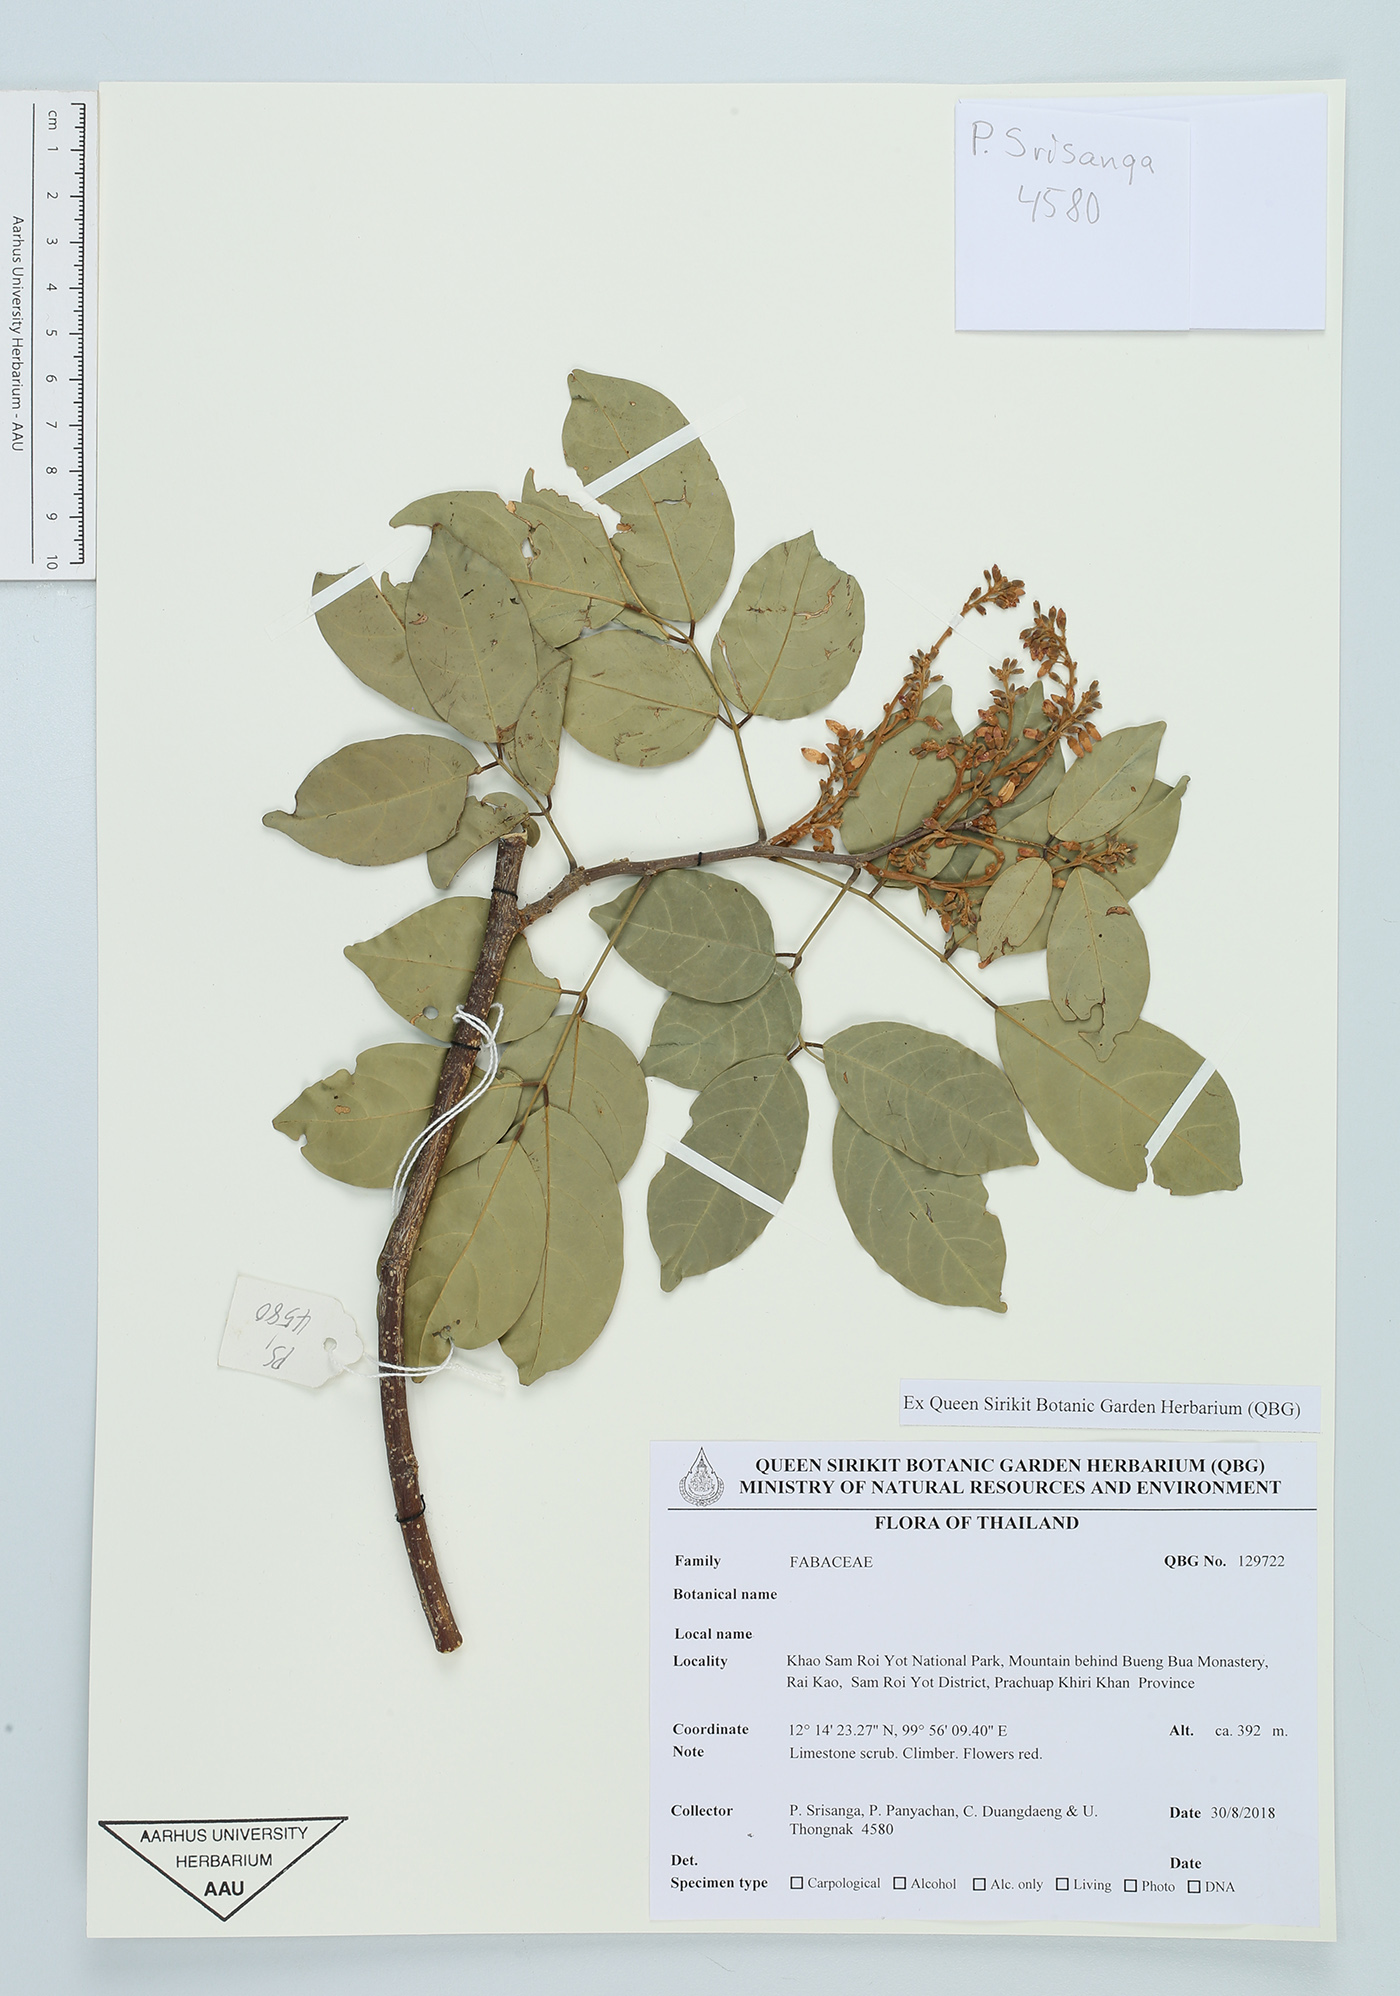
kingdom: Plantae
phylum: Tracheophyta
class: Magnoliopsida
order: Fabales
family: Fabaceae
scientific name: Fabaceae
